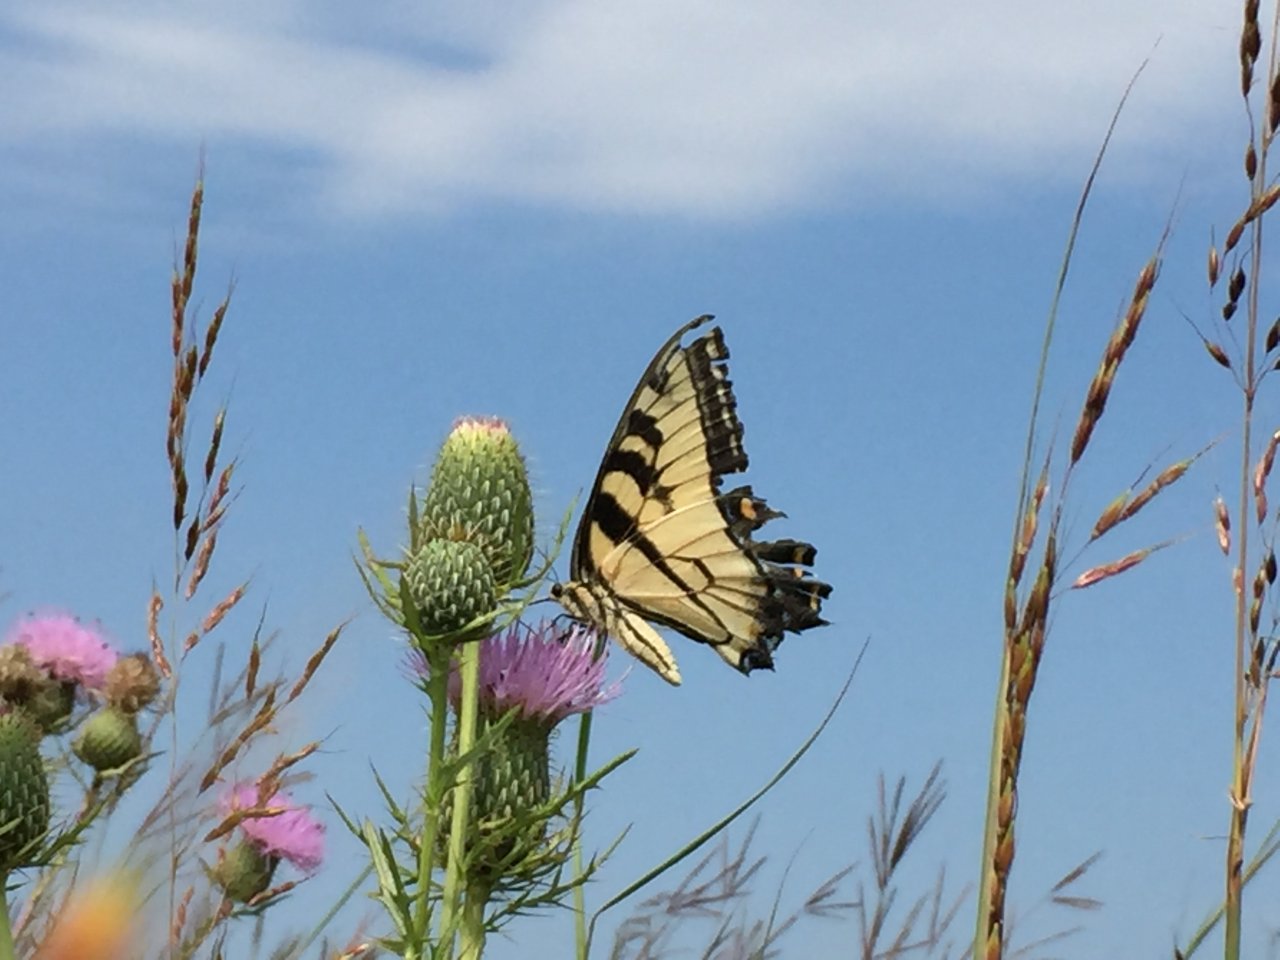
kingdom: Animalia
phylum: Arthropoda
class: Insecta
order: Lepidoptera
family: Papilionidae
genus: Pterourus
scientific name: Pterourus glaucus
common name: Eastern Tiger Swallowtail
